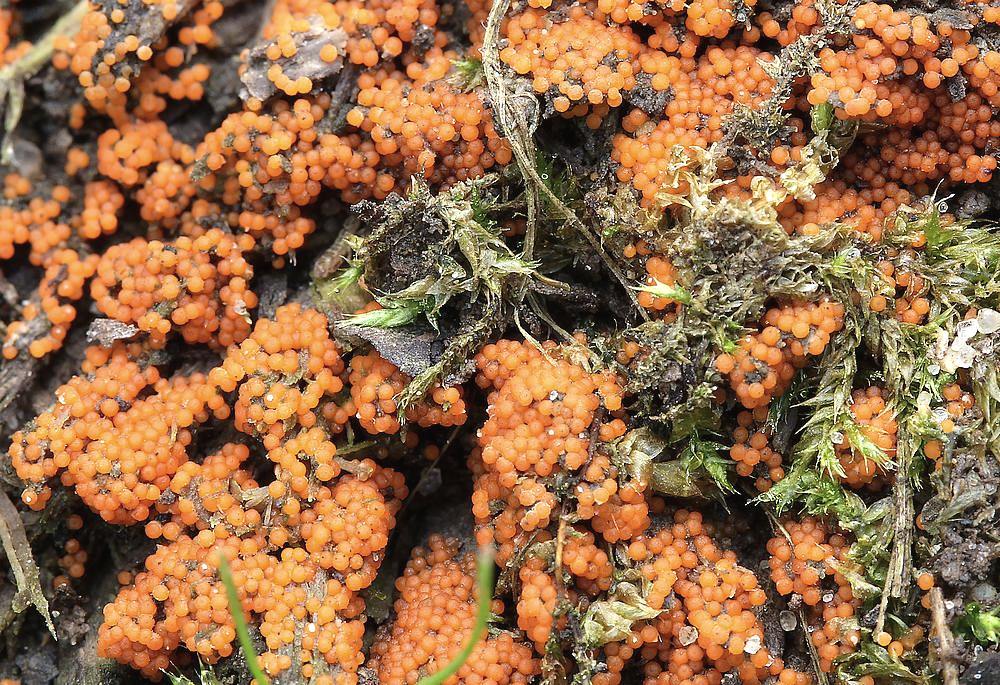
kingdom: Fungi
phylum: Ascomycota
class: Sordariomycetes
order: Hypocreales
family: Nectriaceae
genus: Hydropisphaera
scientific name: Hydropisphaera peziza
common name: skålformet gyldenkerne
